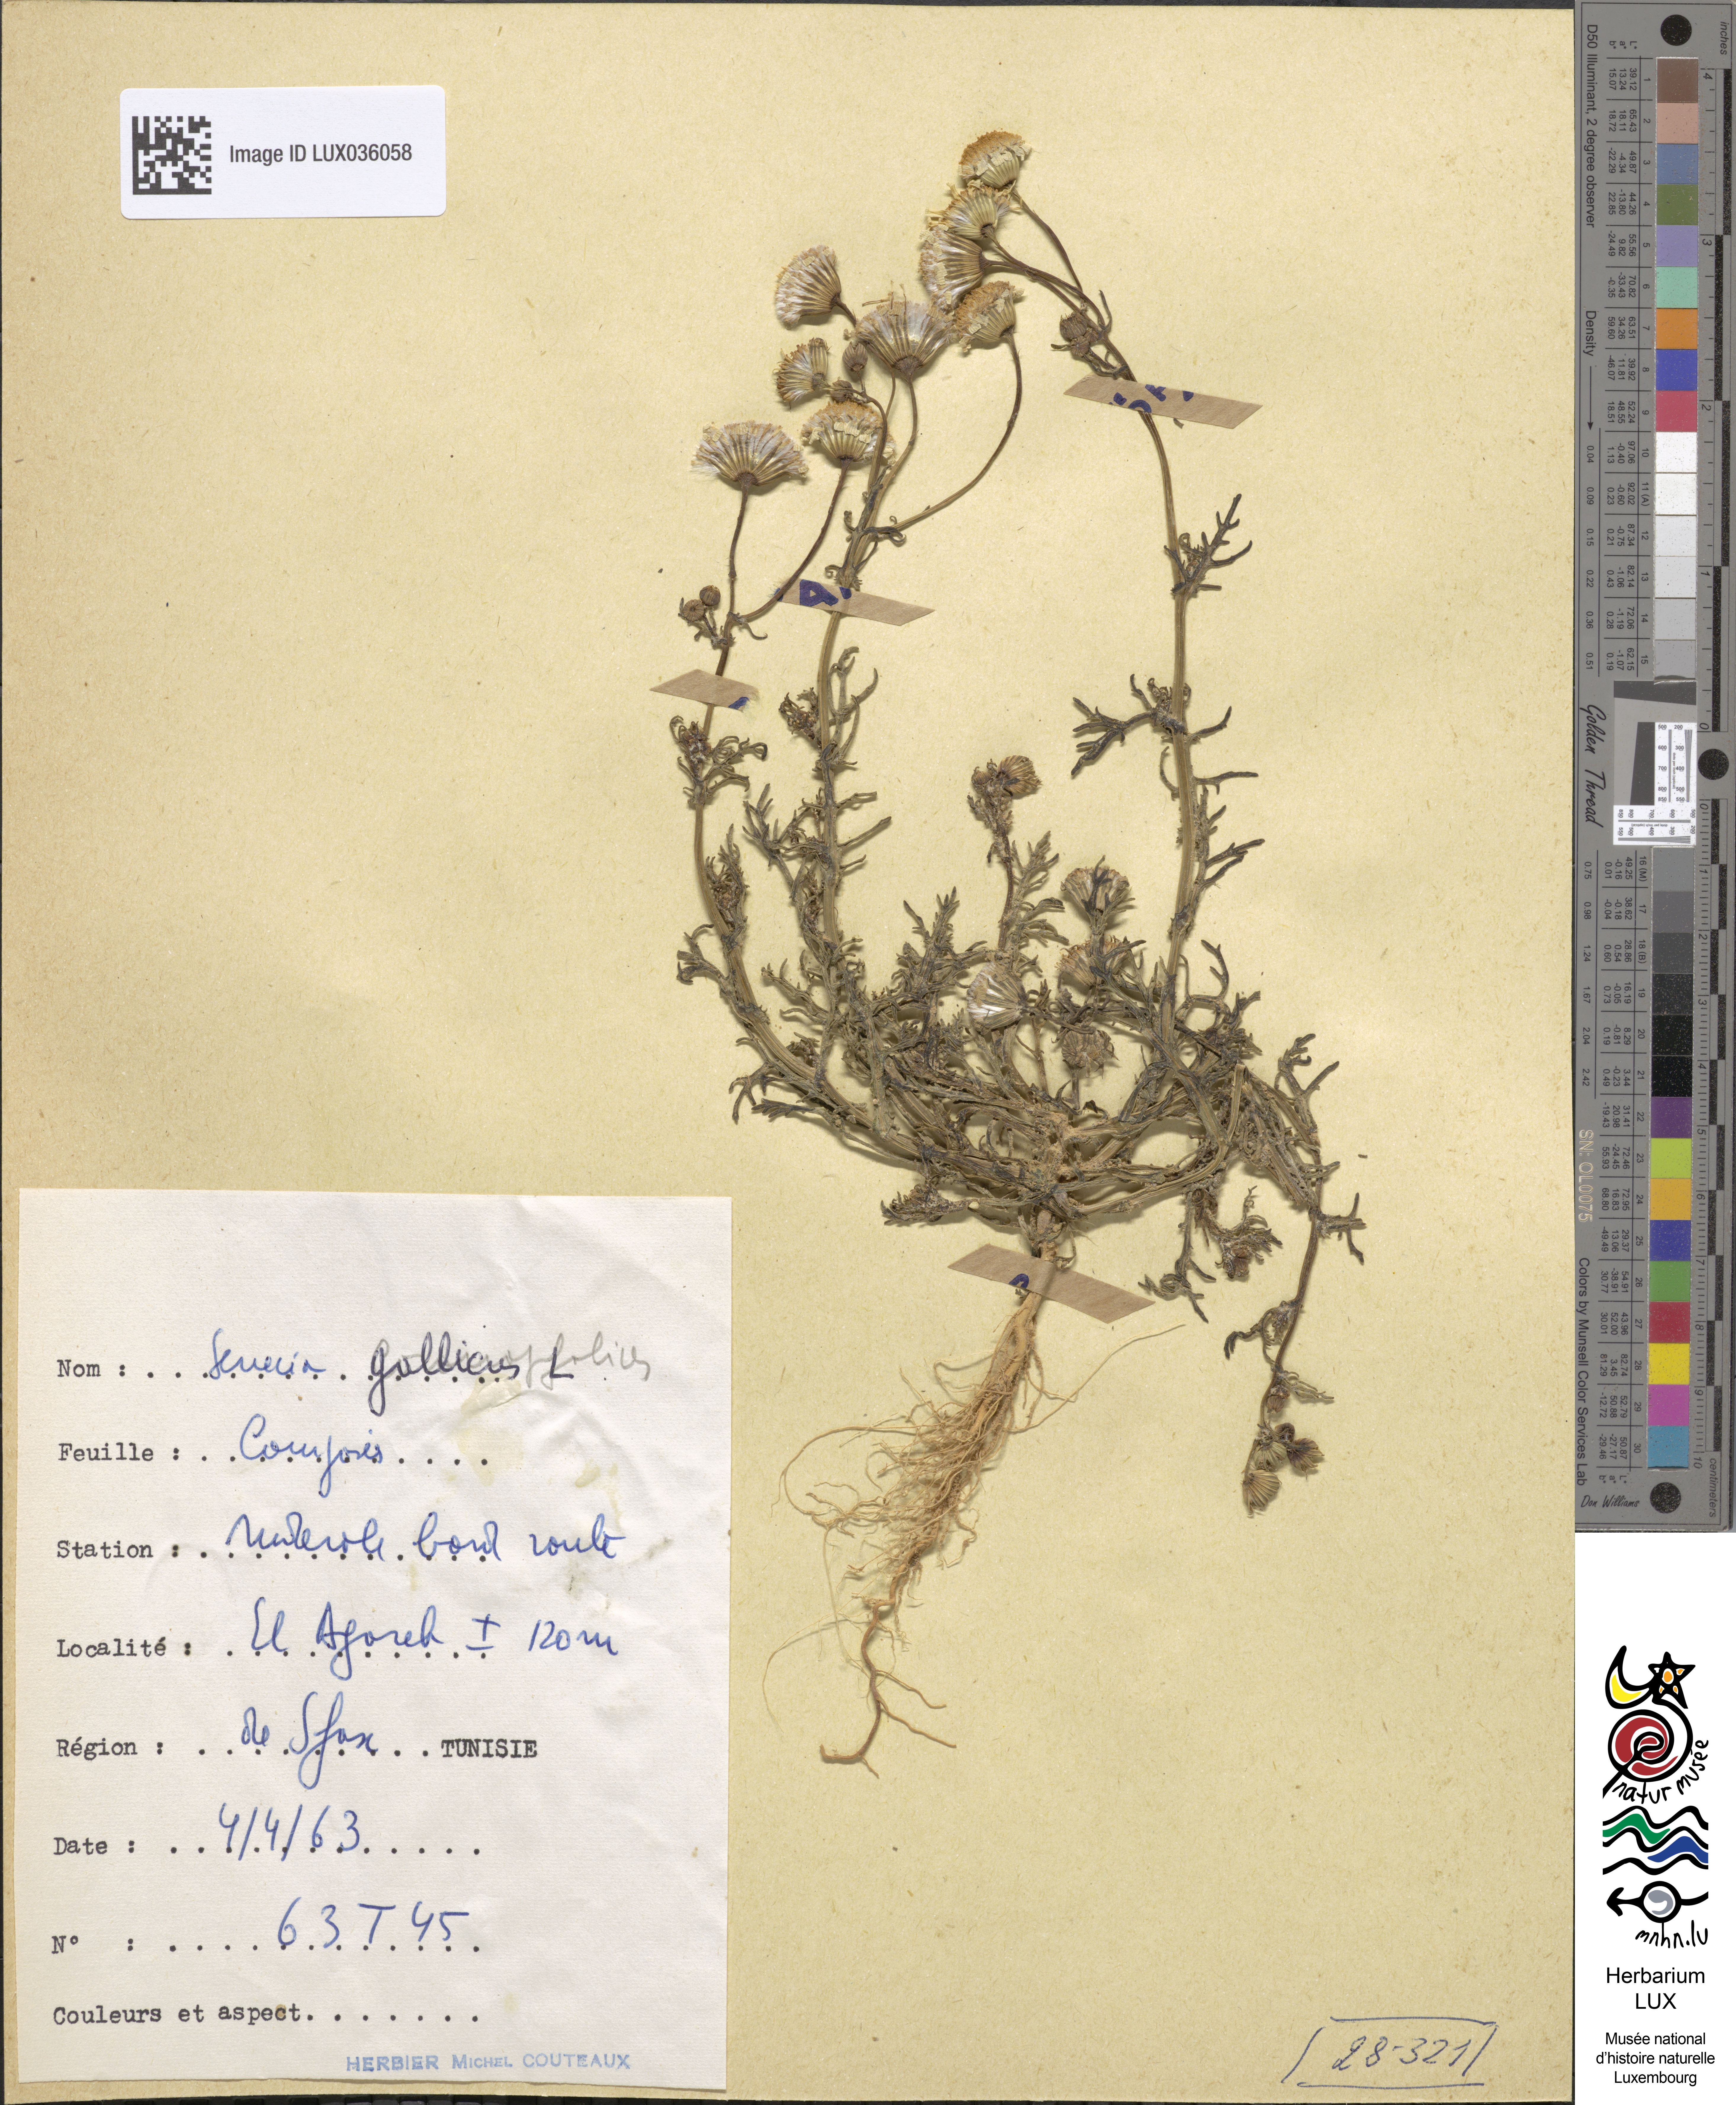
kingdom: Plantae
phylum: Tracheophyta
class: Magnoliopsida
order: Asterales
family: Asteraceae
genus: Senecio
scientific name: Senecio gallicus
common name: French groundsel
